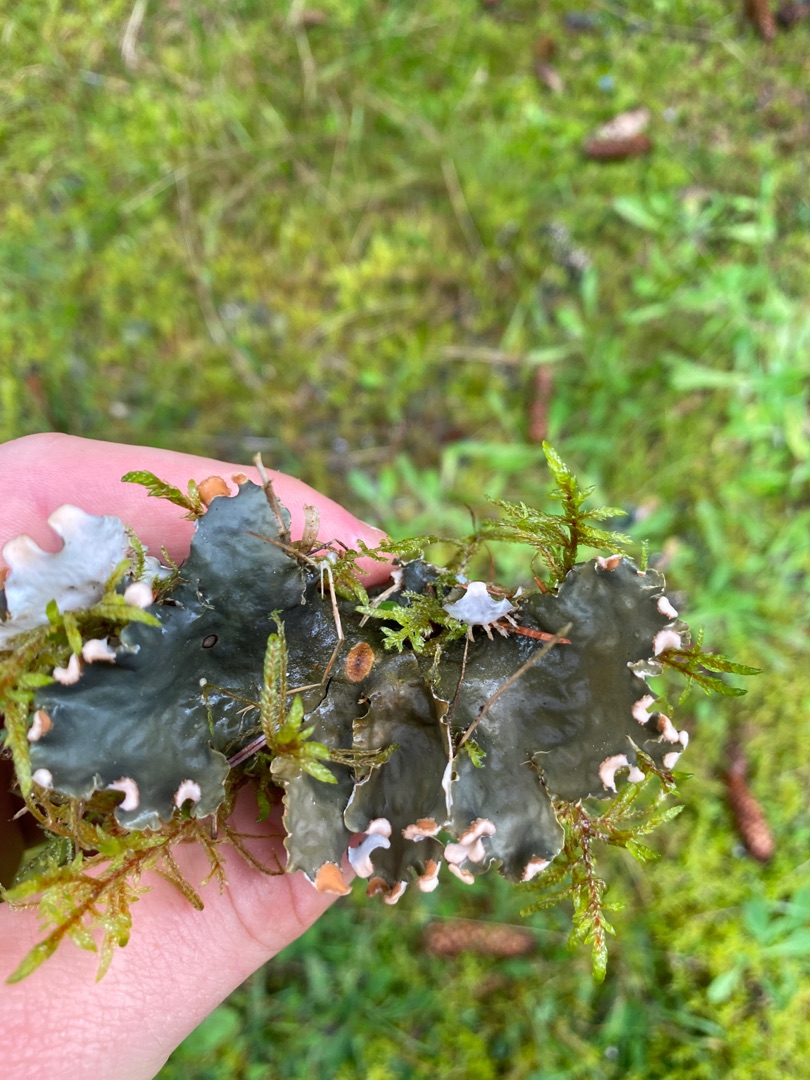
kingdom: Fungi
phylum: Ascomycota
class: Lecanoromycetes
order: Peltigerales
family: Peltigeraceae
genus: Peltigera
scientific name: Peltigera hymenina
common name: Hinde-skjoldlav
